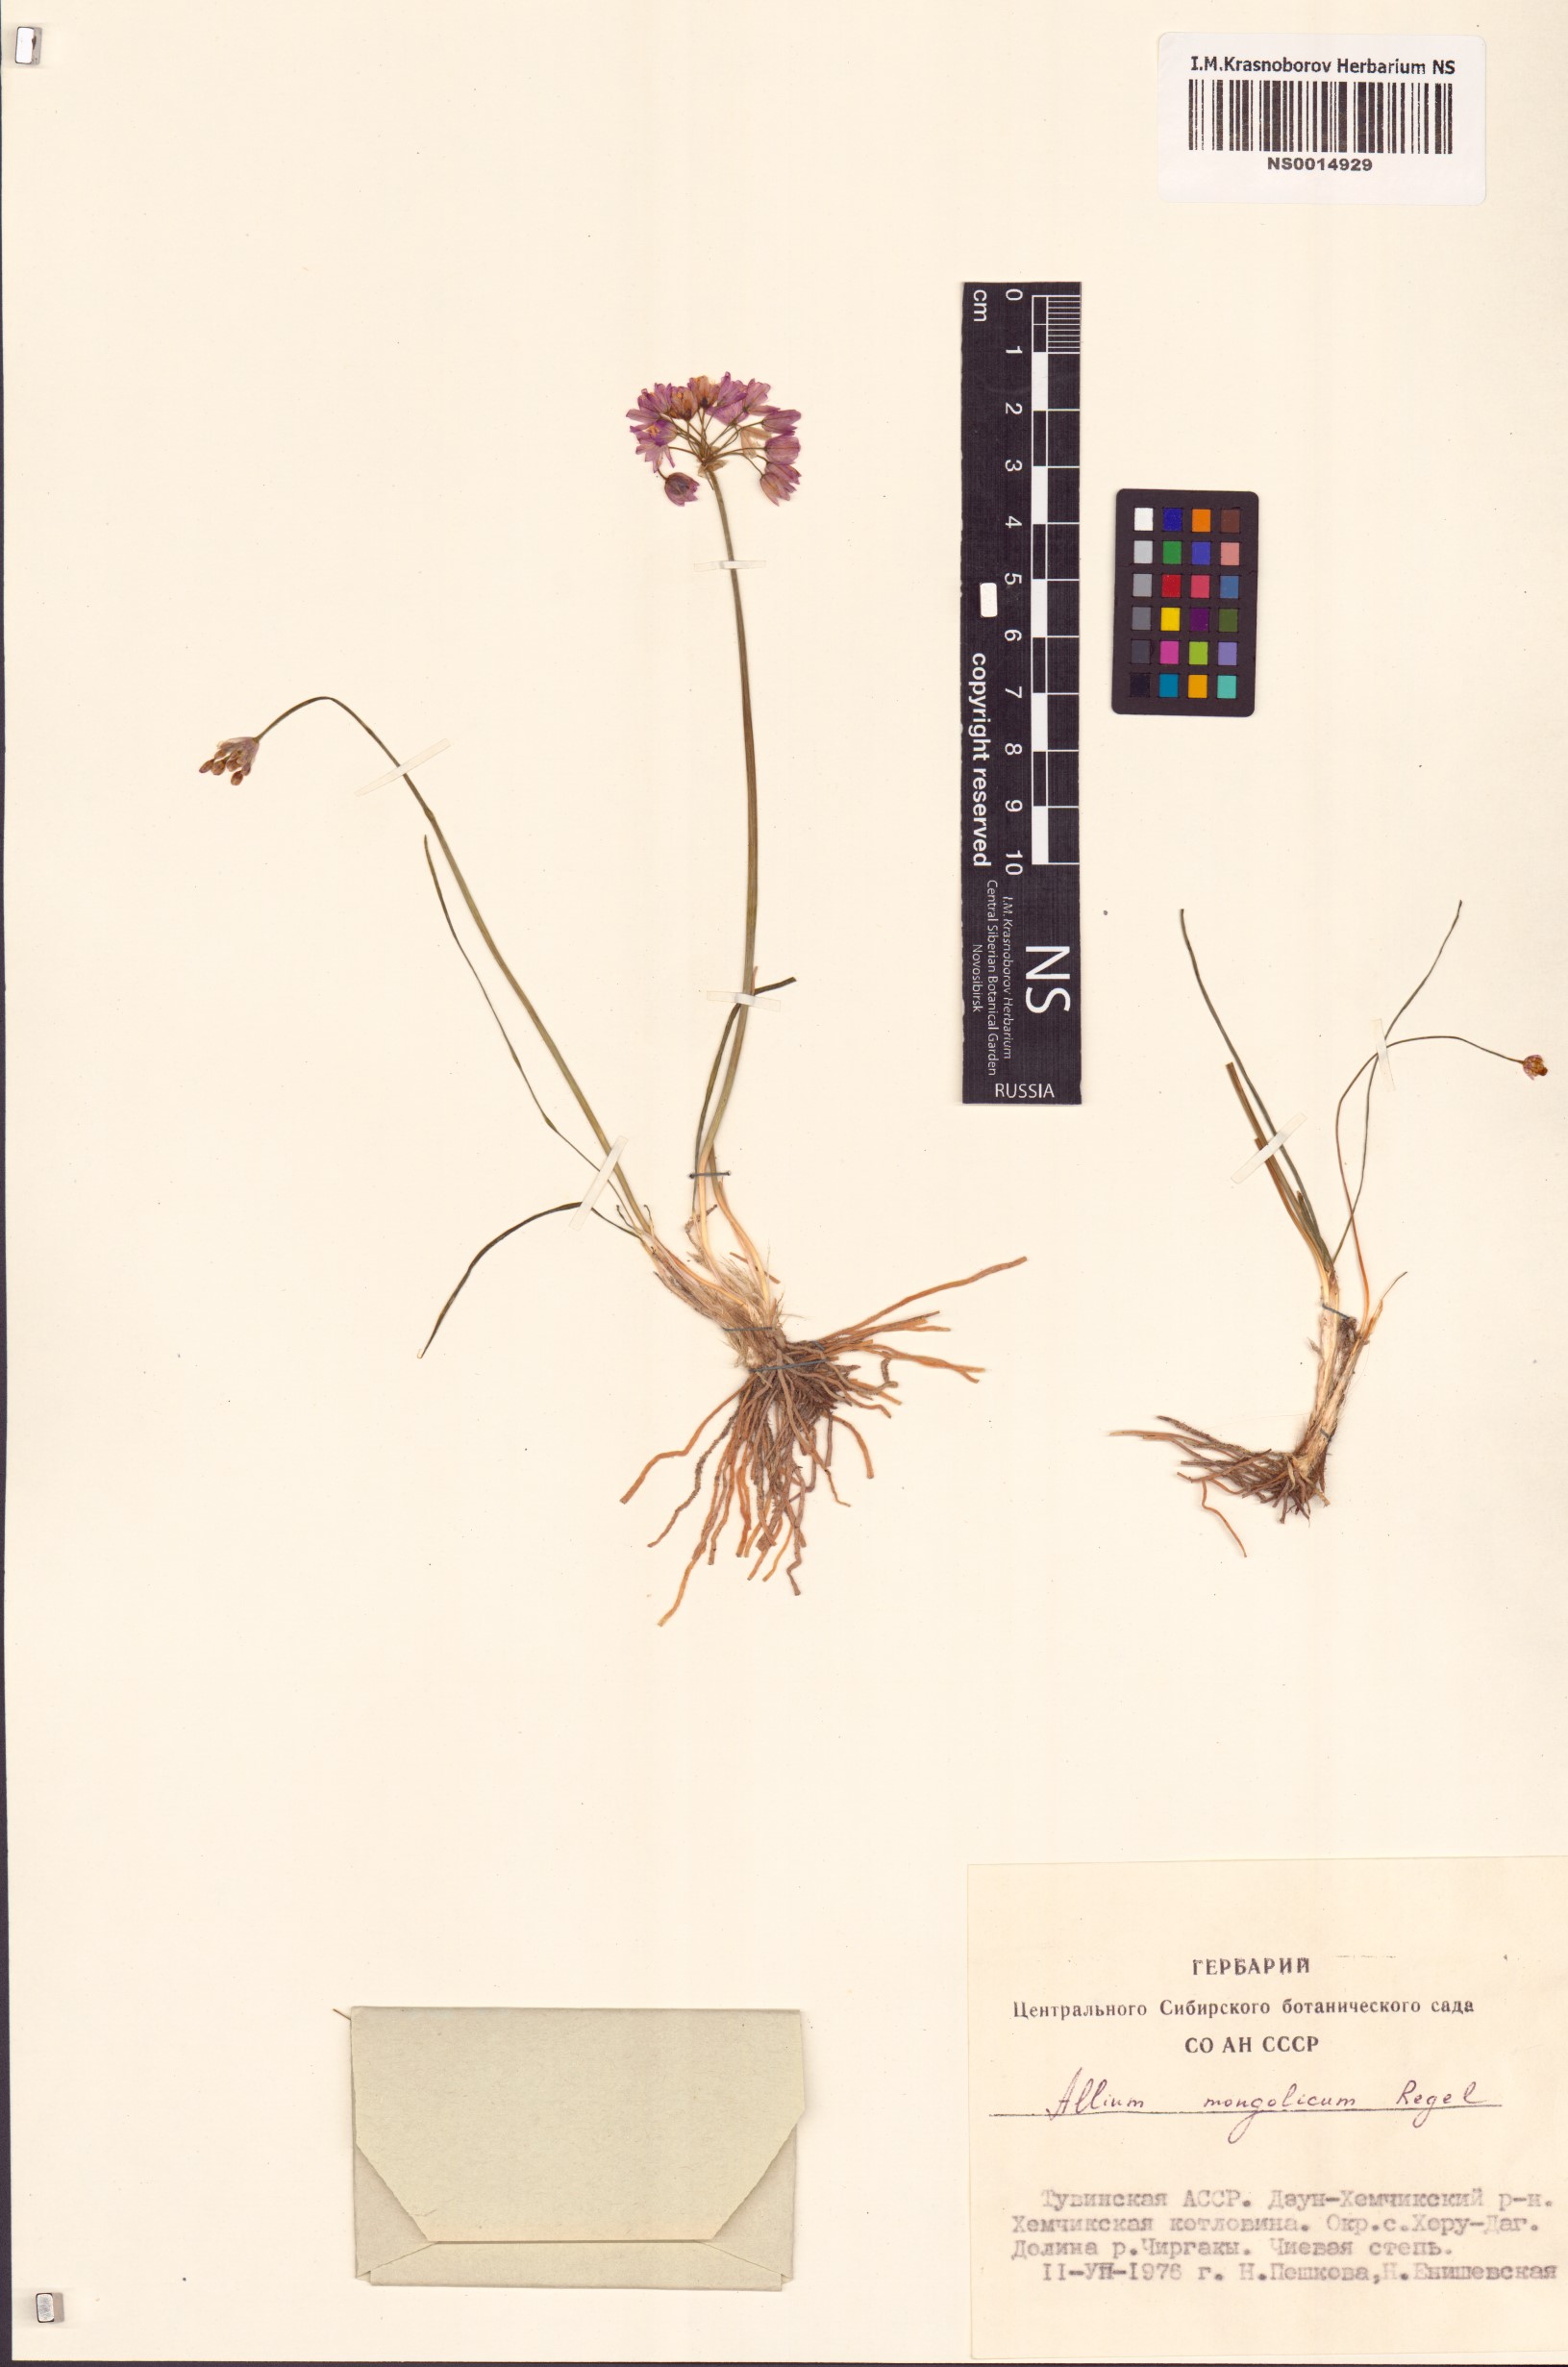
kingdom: Plantae
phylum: Tracheophyta
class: Liliopsida
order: Asparagales
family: Amaryllidaceae
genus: Allium
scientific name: Allium mongolicum
